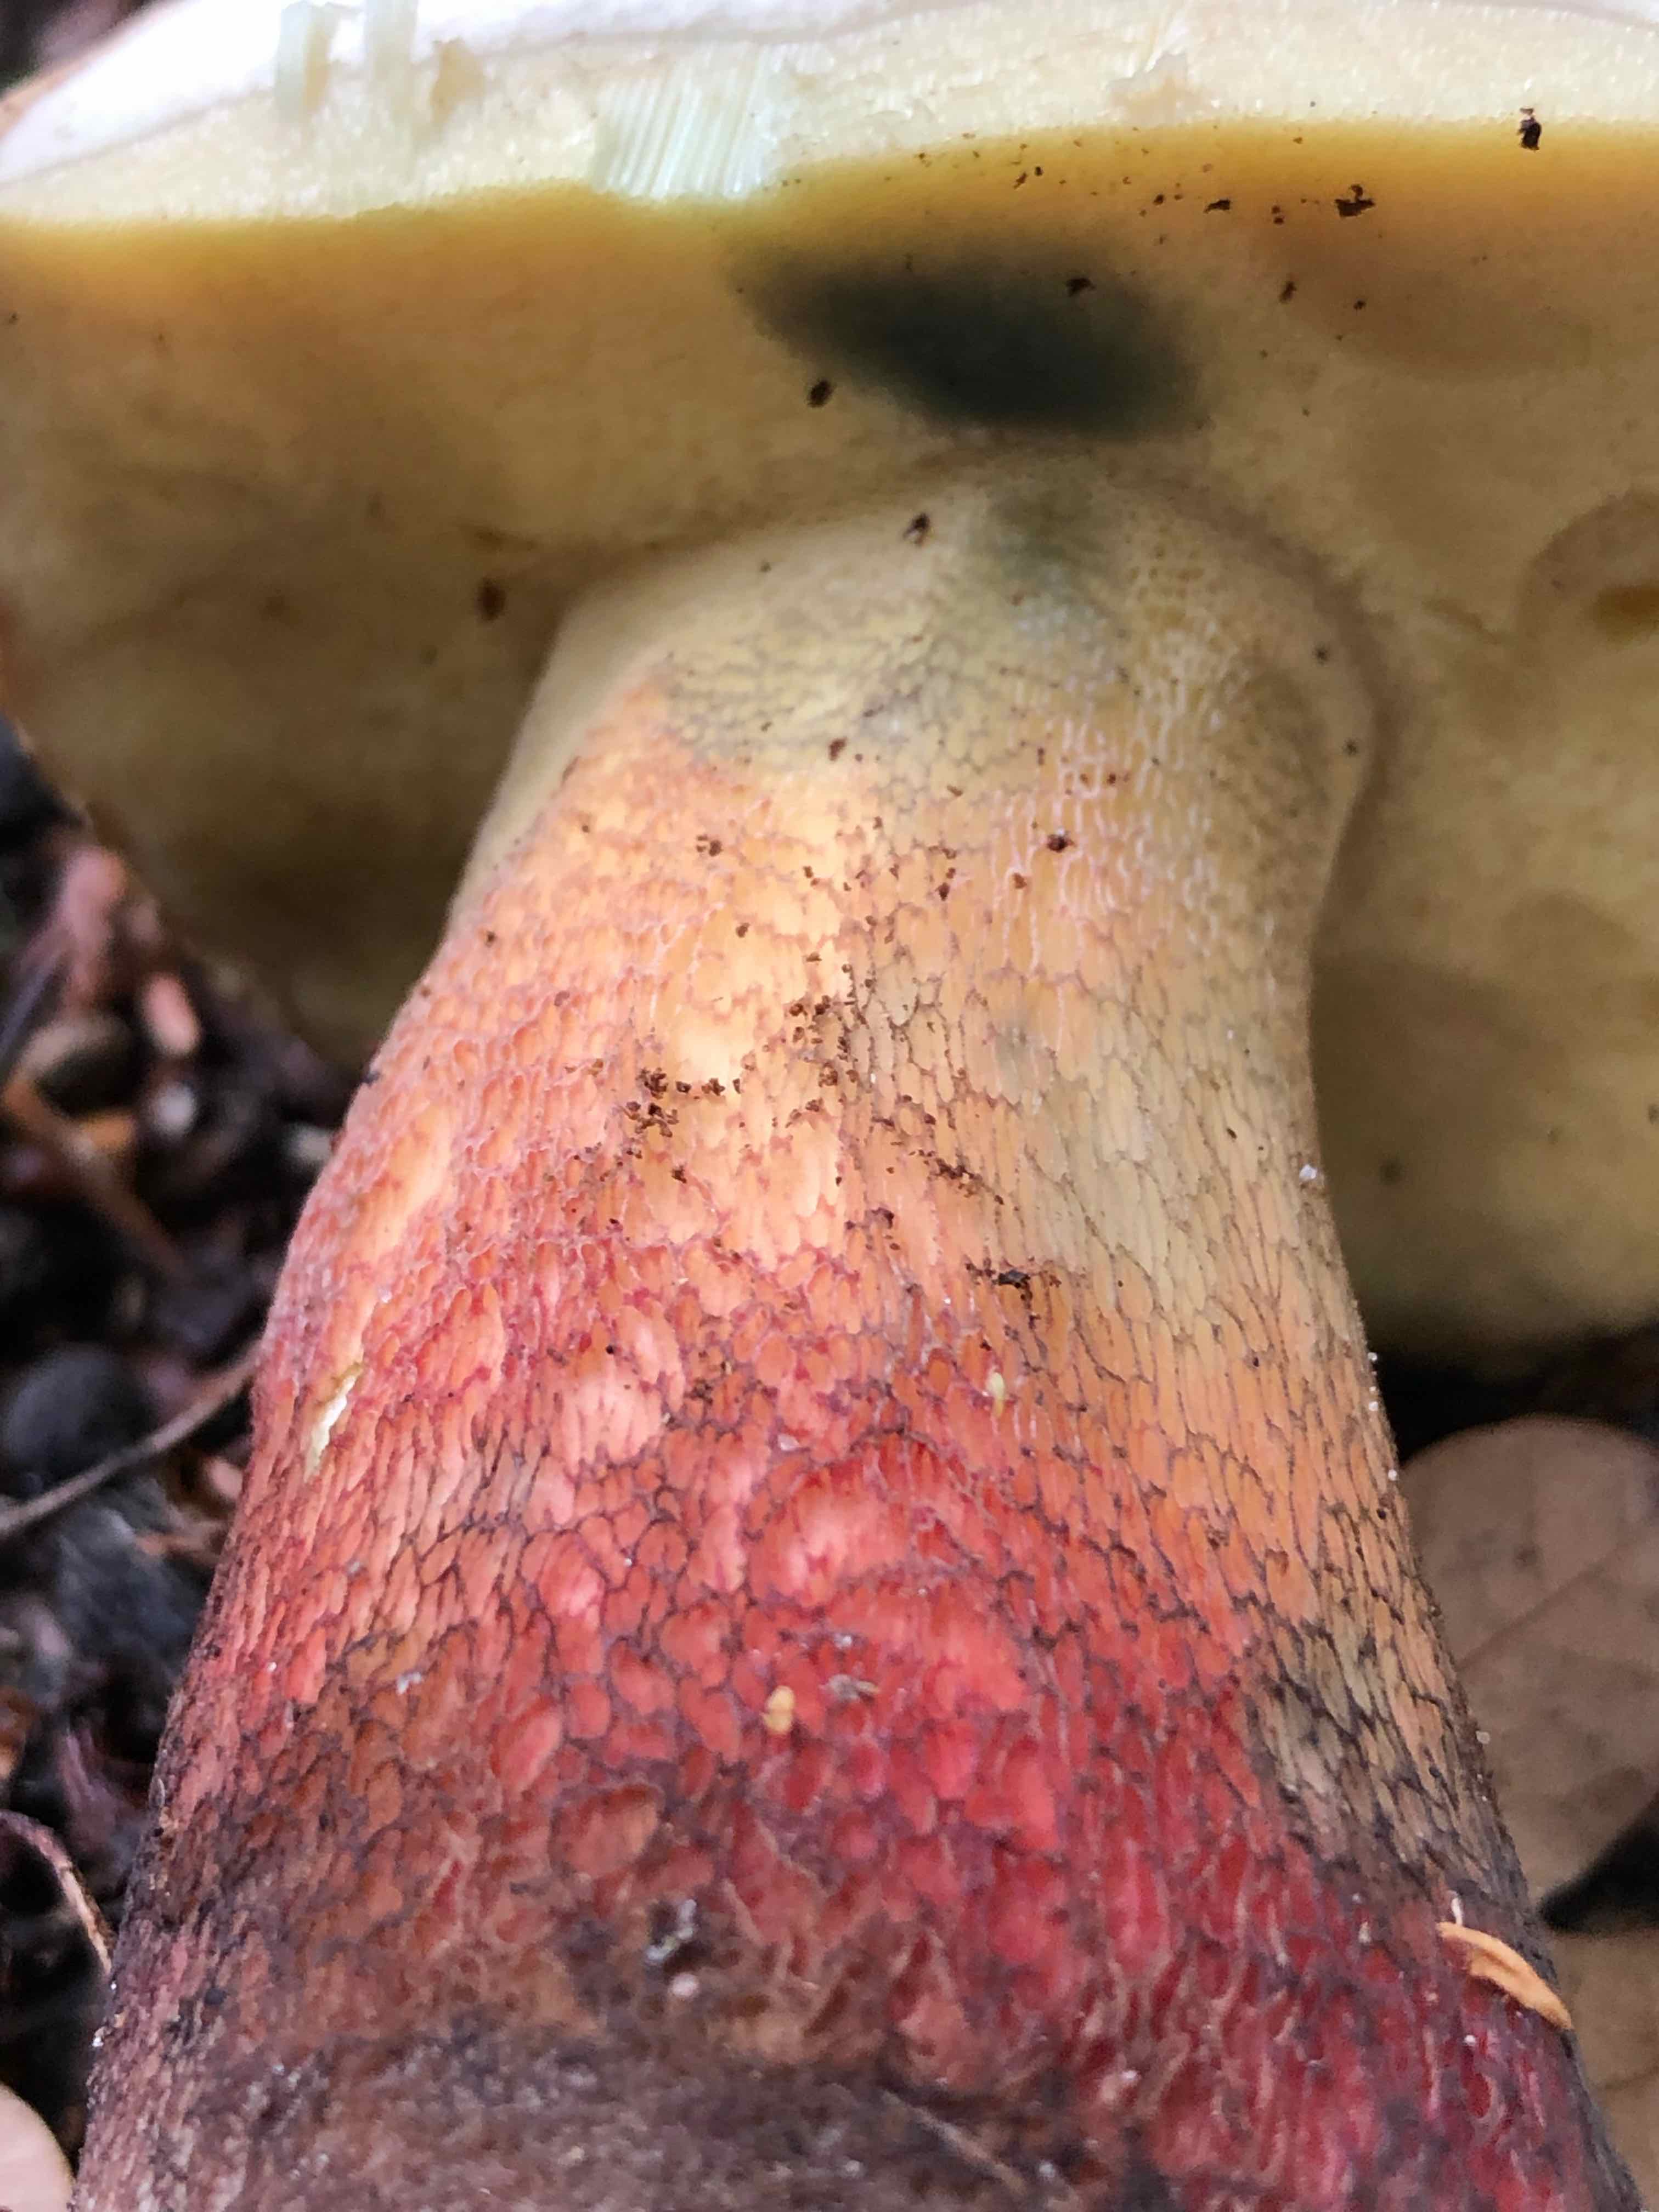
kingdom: Fungi
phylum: Basidiomycota
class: Agaricomycetes
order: Boletales
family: Boletaceae
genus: Caloboletus
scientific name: Caloboletus calopus
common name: skønfodet rørhat
